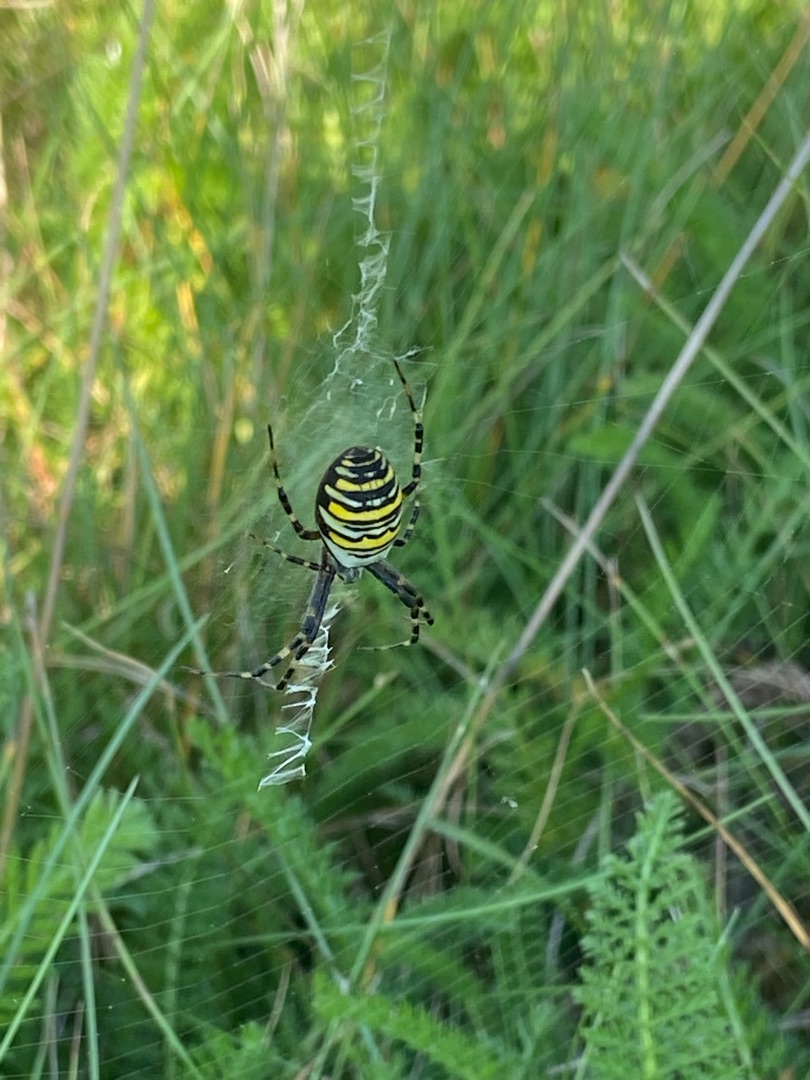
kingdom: Animalia
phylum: Arthropoda
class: Arachnida
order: Araneae
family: Araneidae
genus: Argiope
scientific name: Argiope bruennichi
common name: Hvepseedderkop
